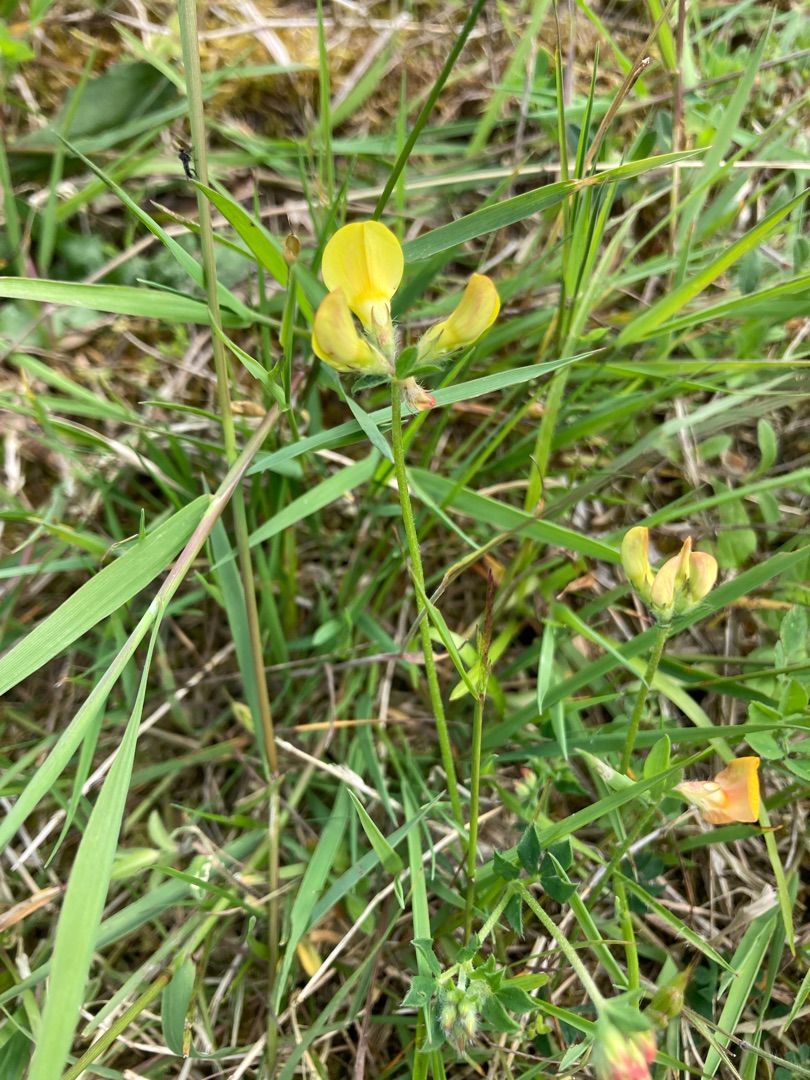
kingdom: Plantae
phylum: Tracheophyta
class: Magnoliopsida
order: Fabales
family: Fabaceae
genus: Lotus
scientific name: Lotus corniculatus
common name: Almindelig kællingetand
